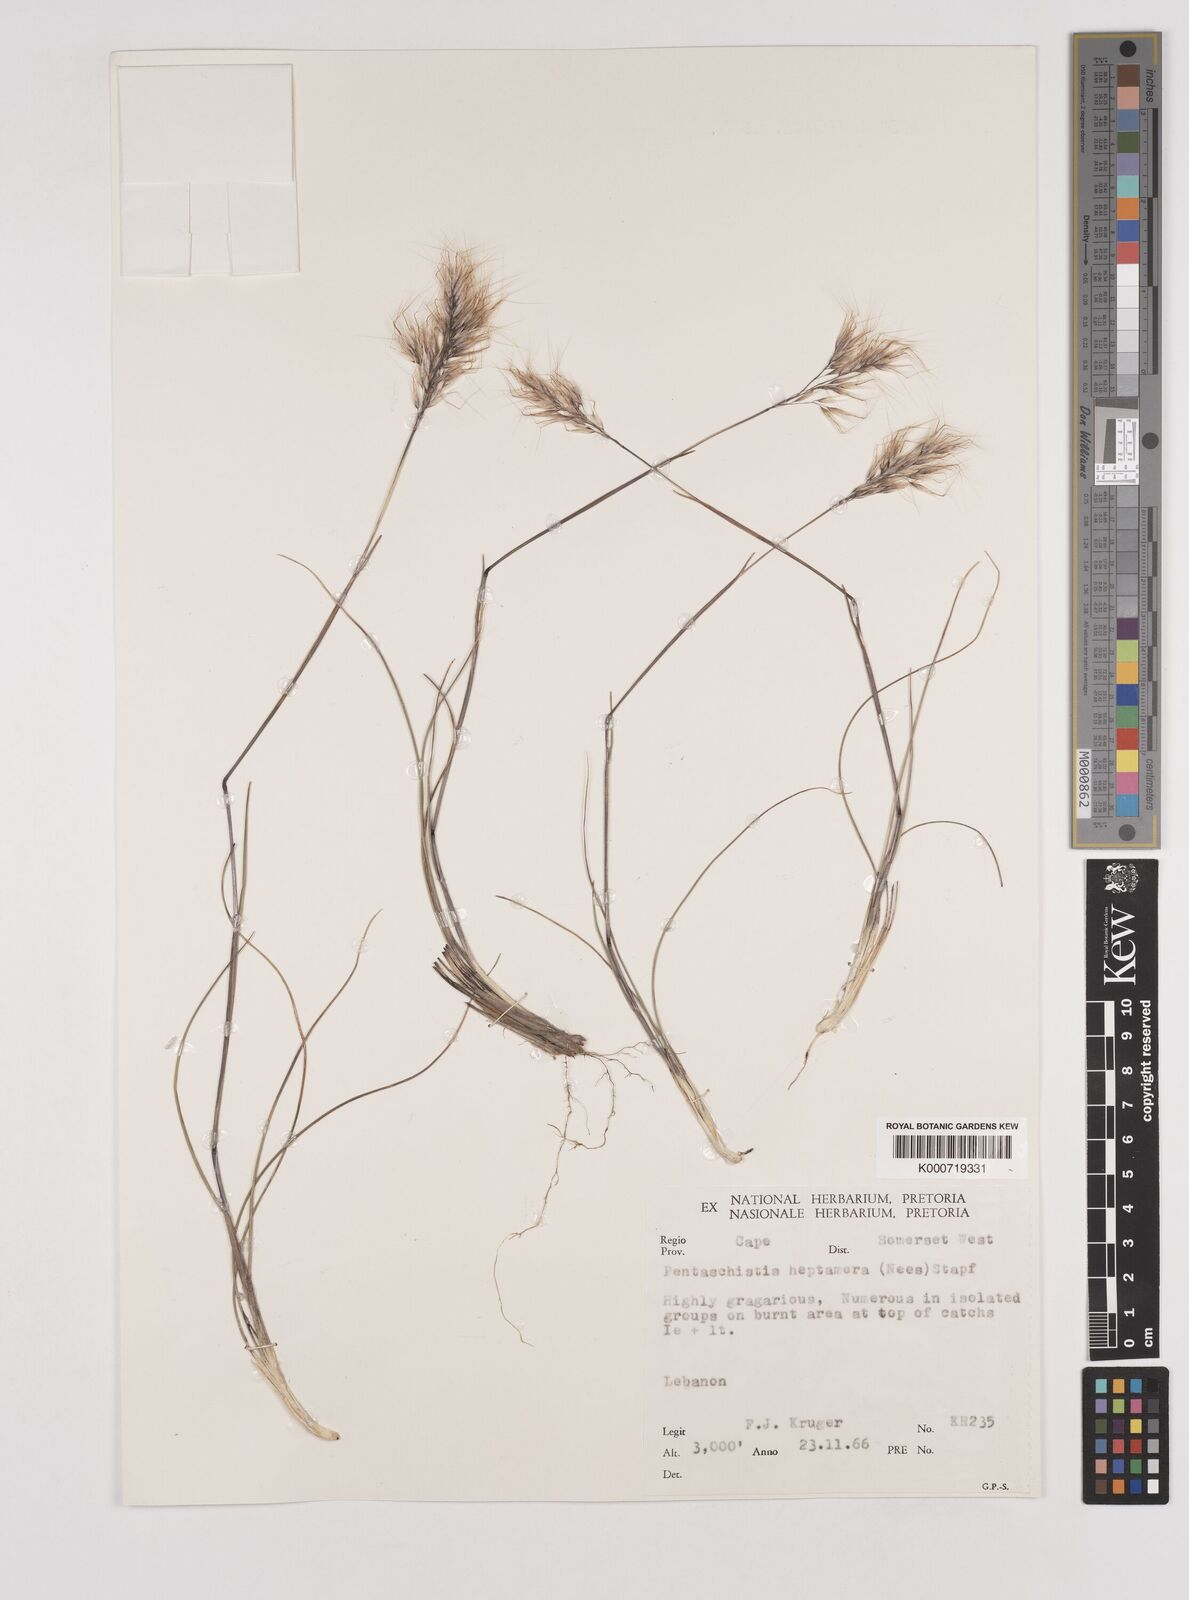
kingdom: Plantae
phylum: Tracheophyta
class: Liliopsida
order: Poales
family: Poaceae
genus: Pentameris
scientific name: Pentameris pallescens
